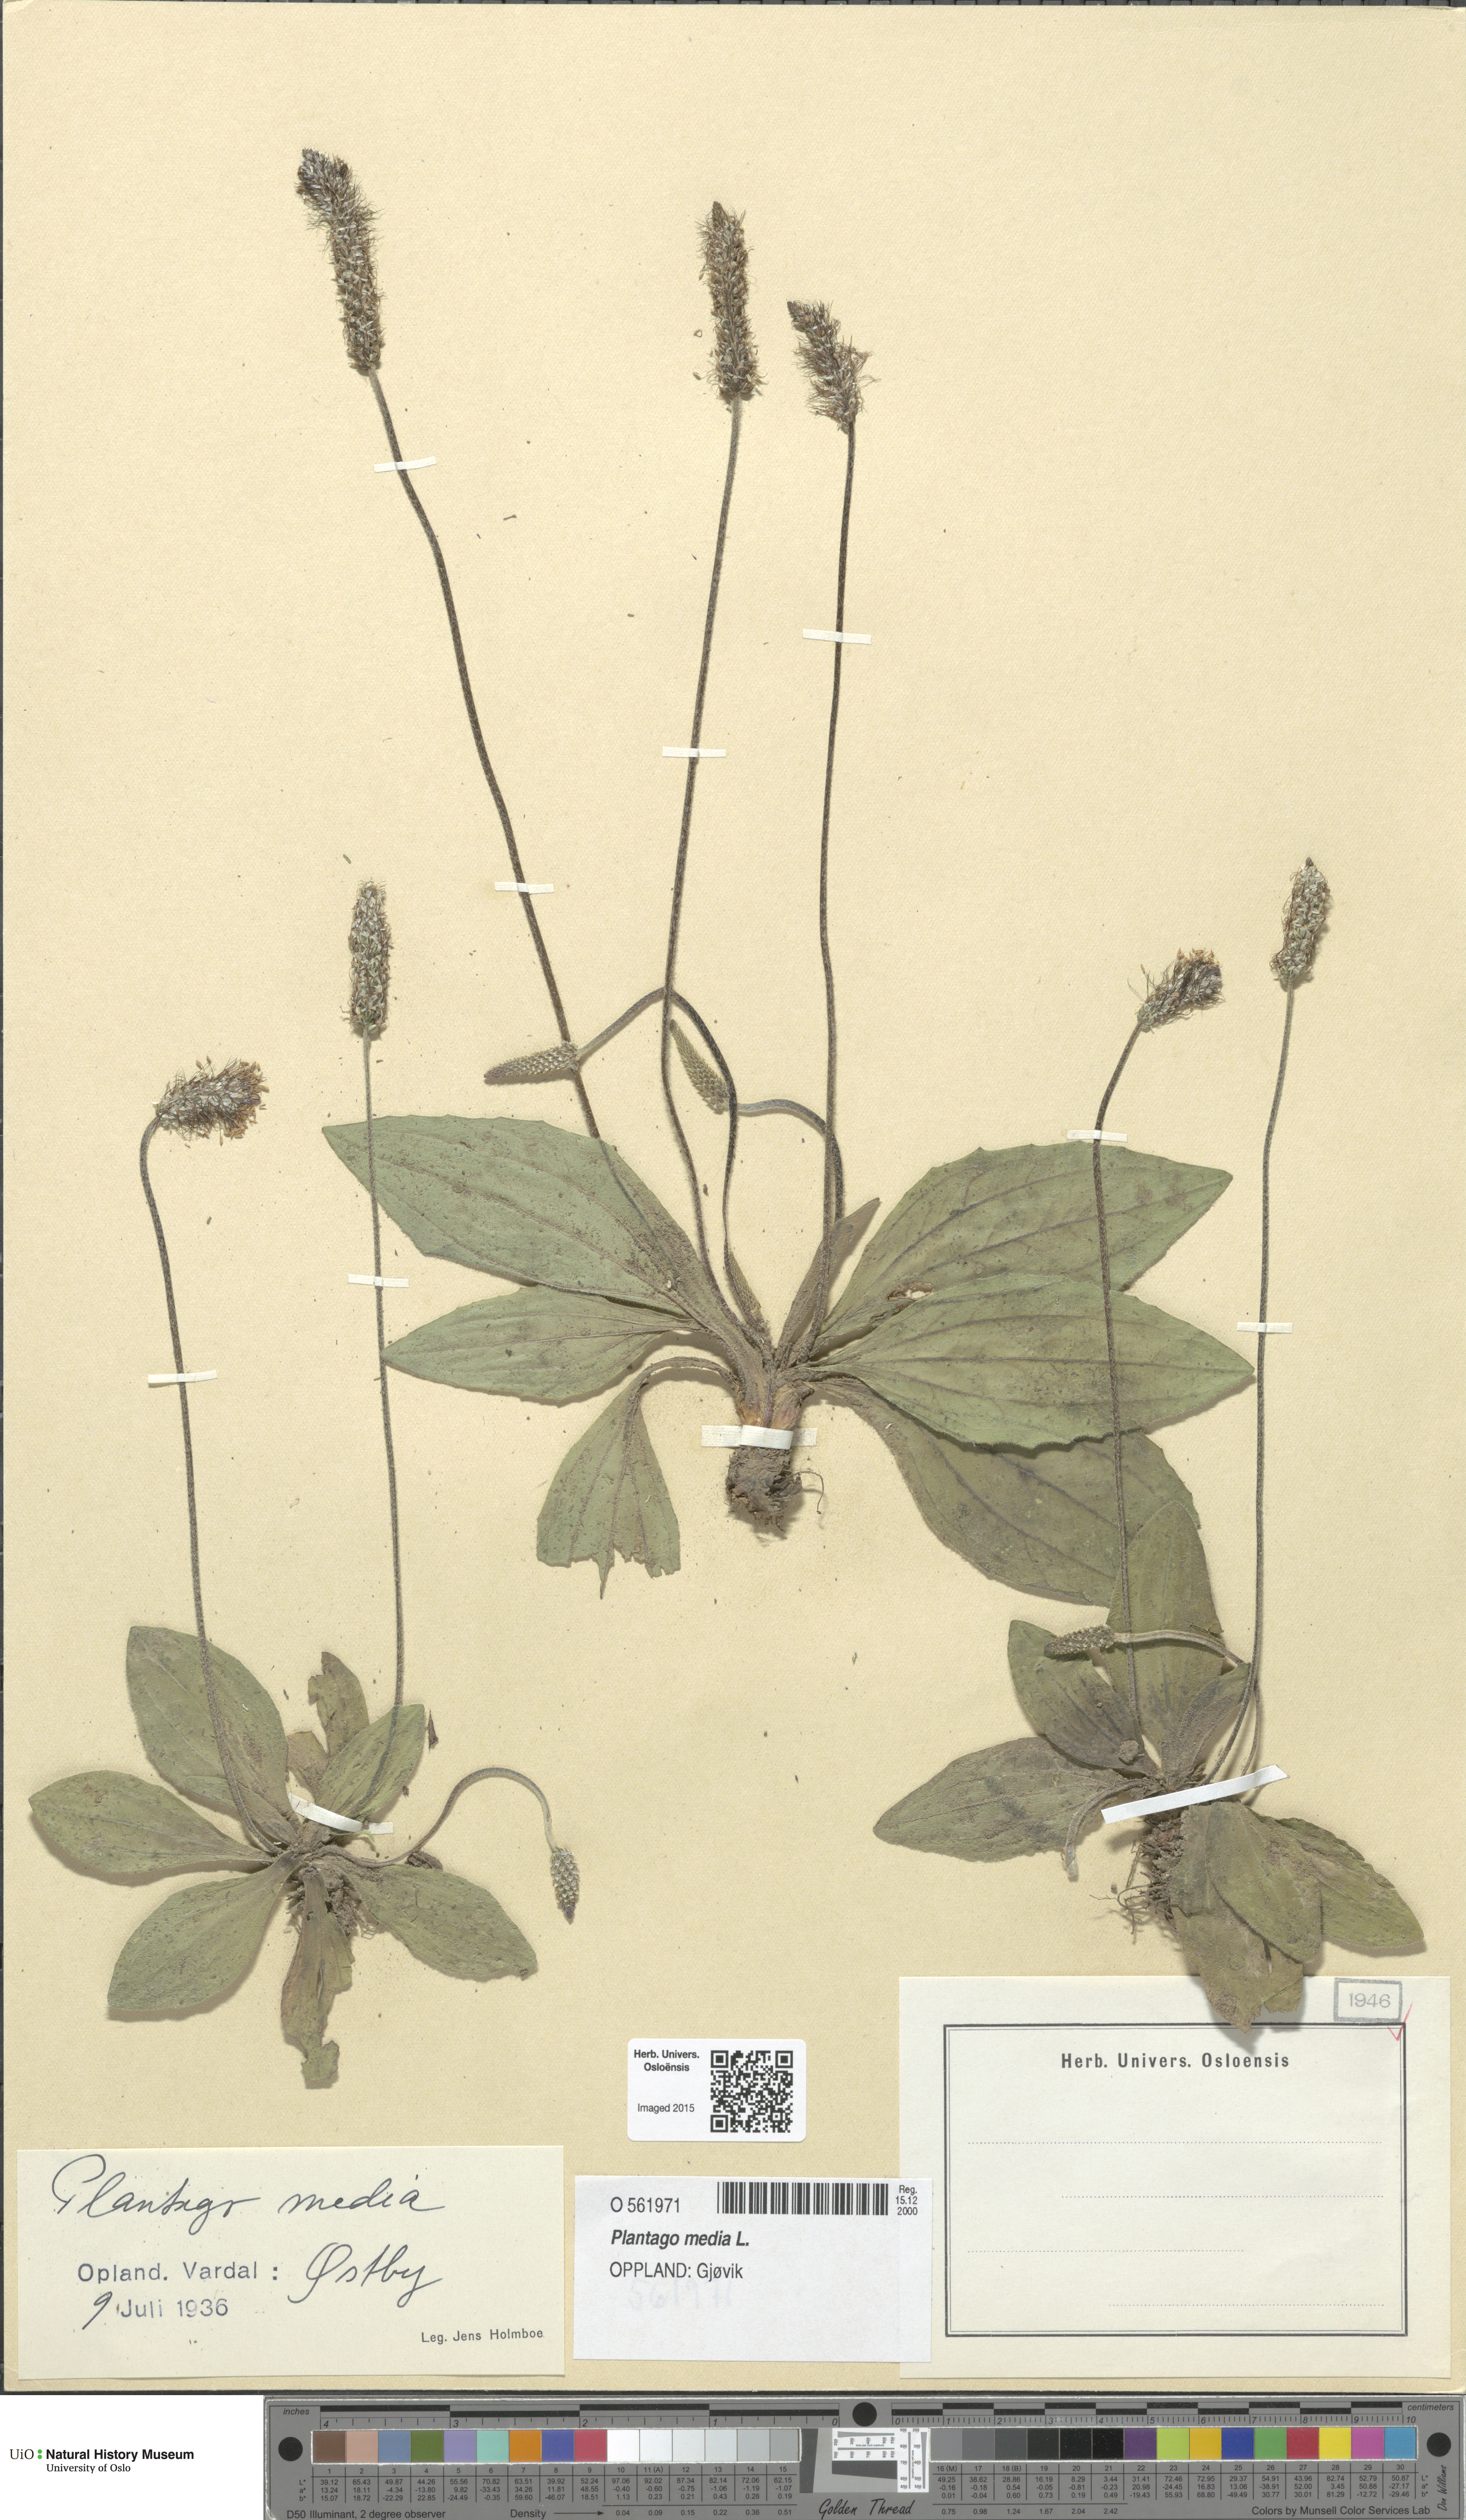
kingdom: Plantae
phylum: Tracheophyta
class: Magnoliopsida
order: Lamiales
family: Plantaginaceae
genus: Plantago
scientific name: Plantago media
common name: Hoary plantain
